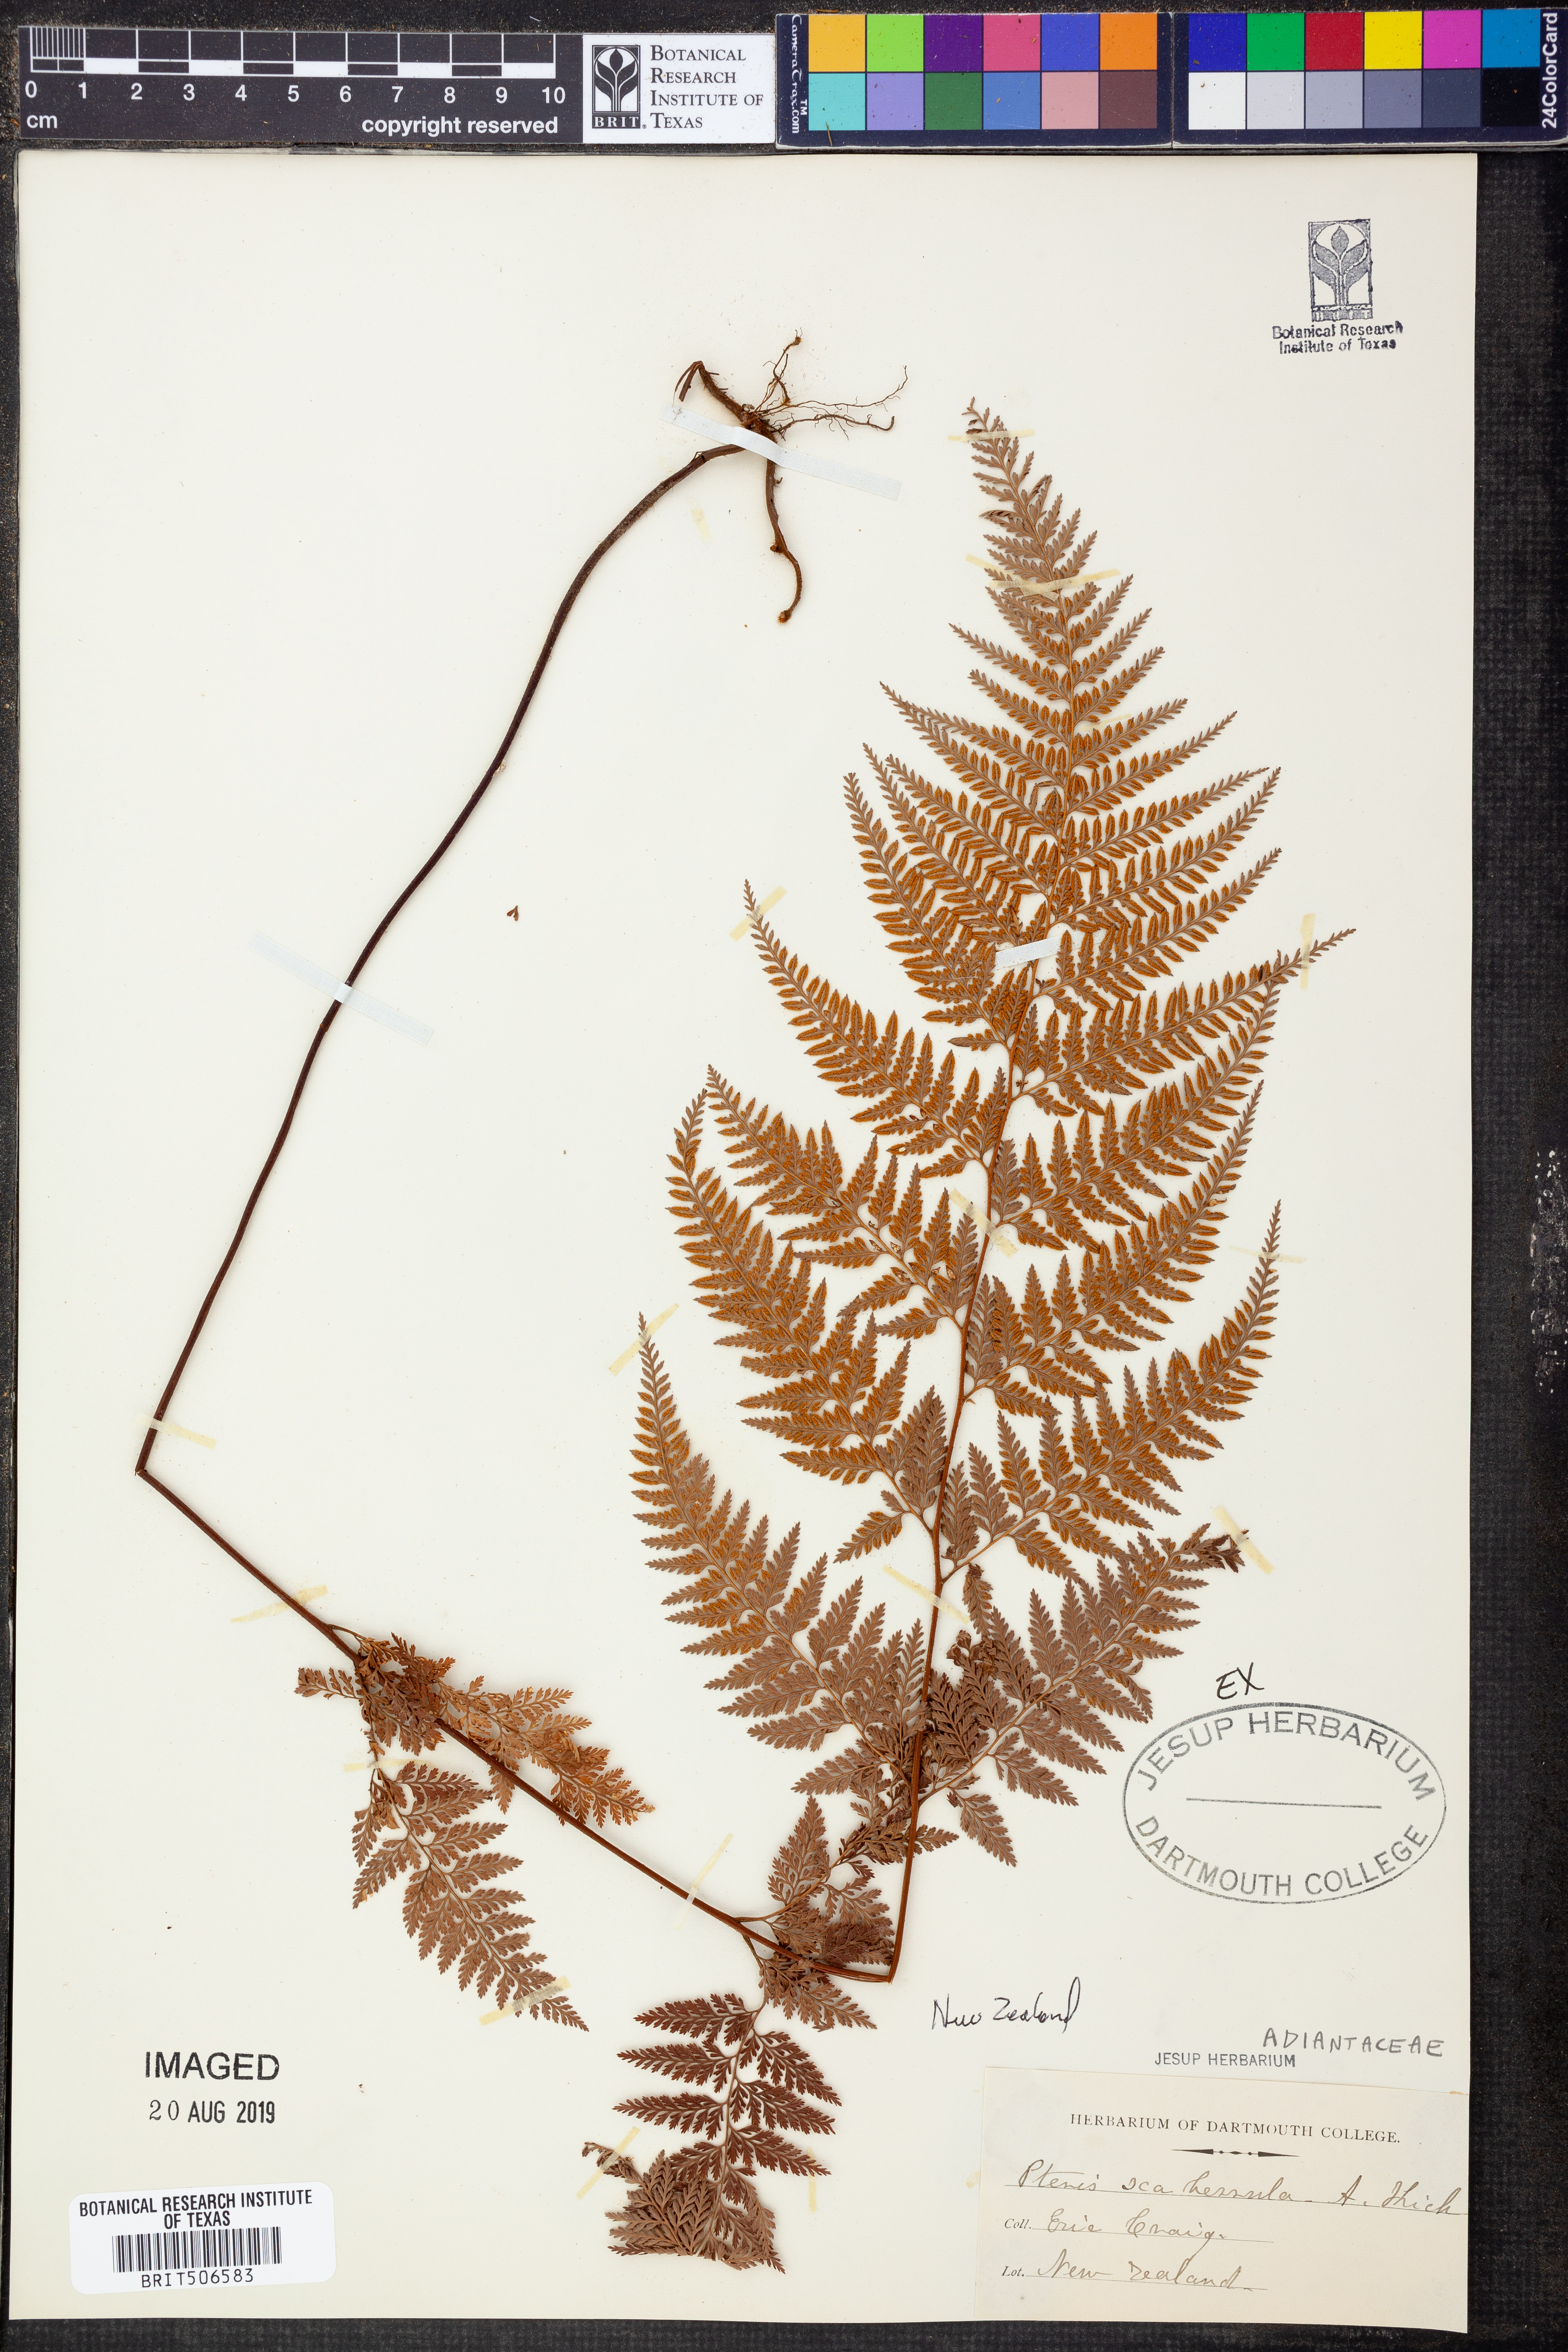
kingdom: Plantae
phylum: Tracheophyta
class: Polypodiopsida
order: Polypodiales
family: Dennstaedtiaceae
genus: Paesia
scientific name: Paesia scaberula
